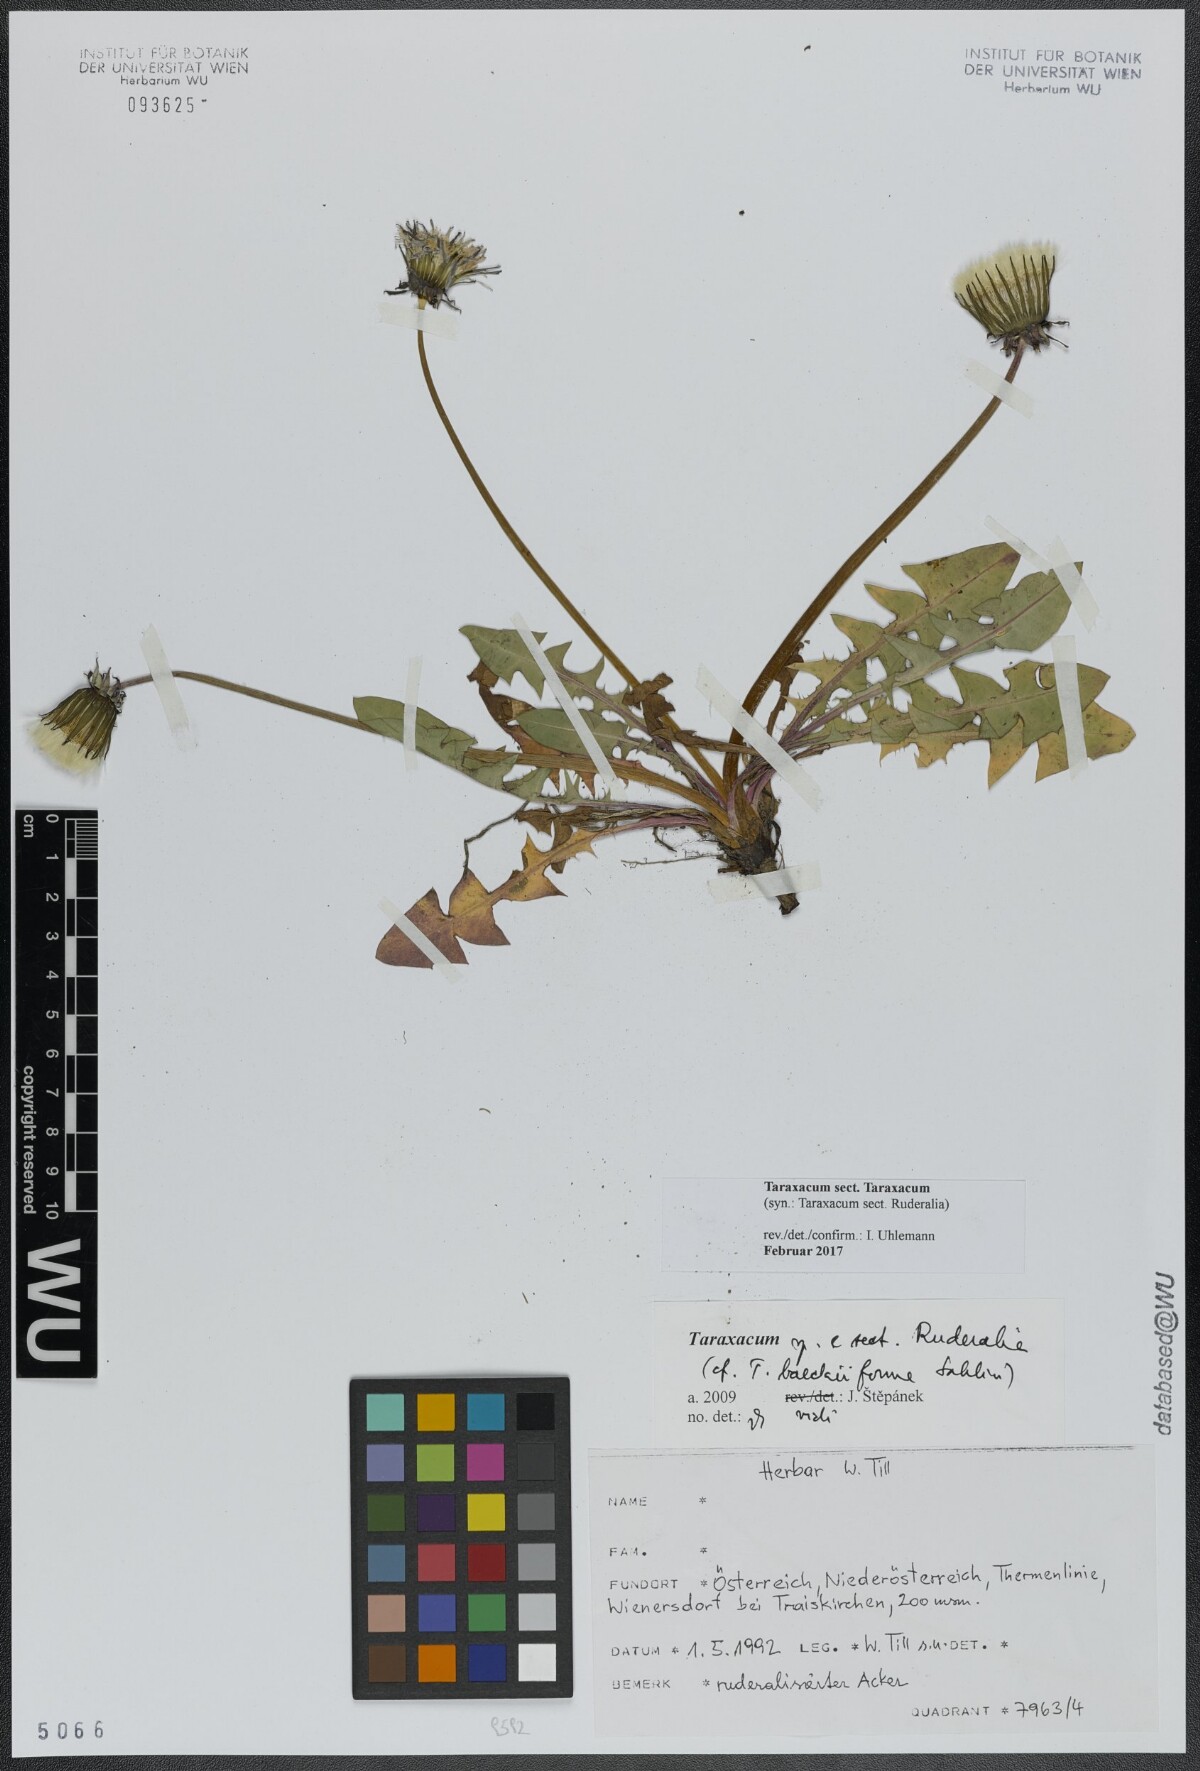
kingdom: Plantae
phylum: Tracheophyta
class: Magnoliopsida
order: Asterales
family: Asteraceae
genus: Taraxacum
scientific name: Taraxacum
